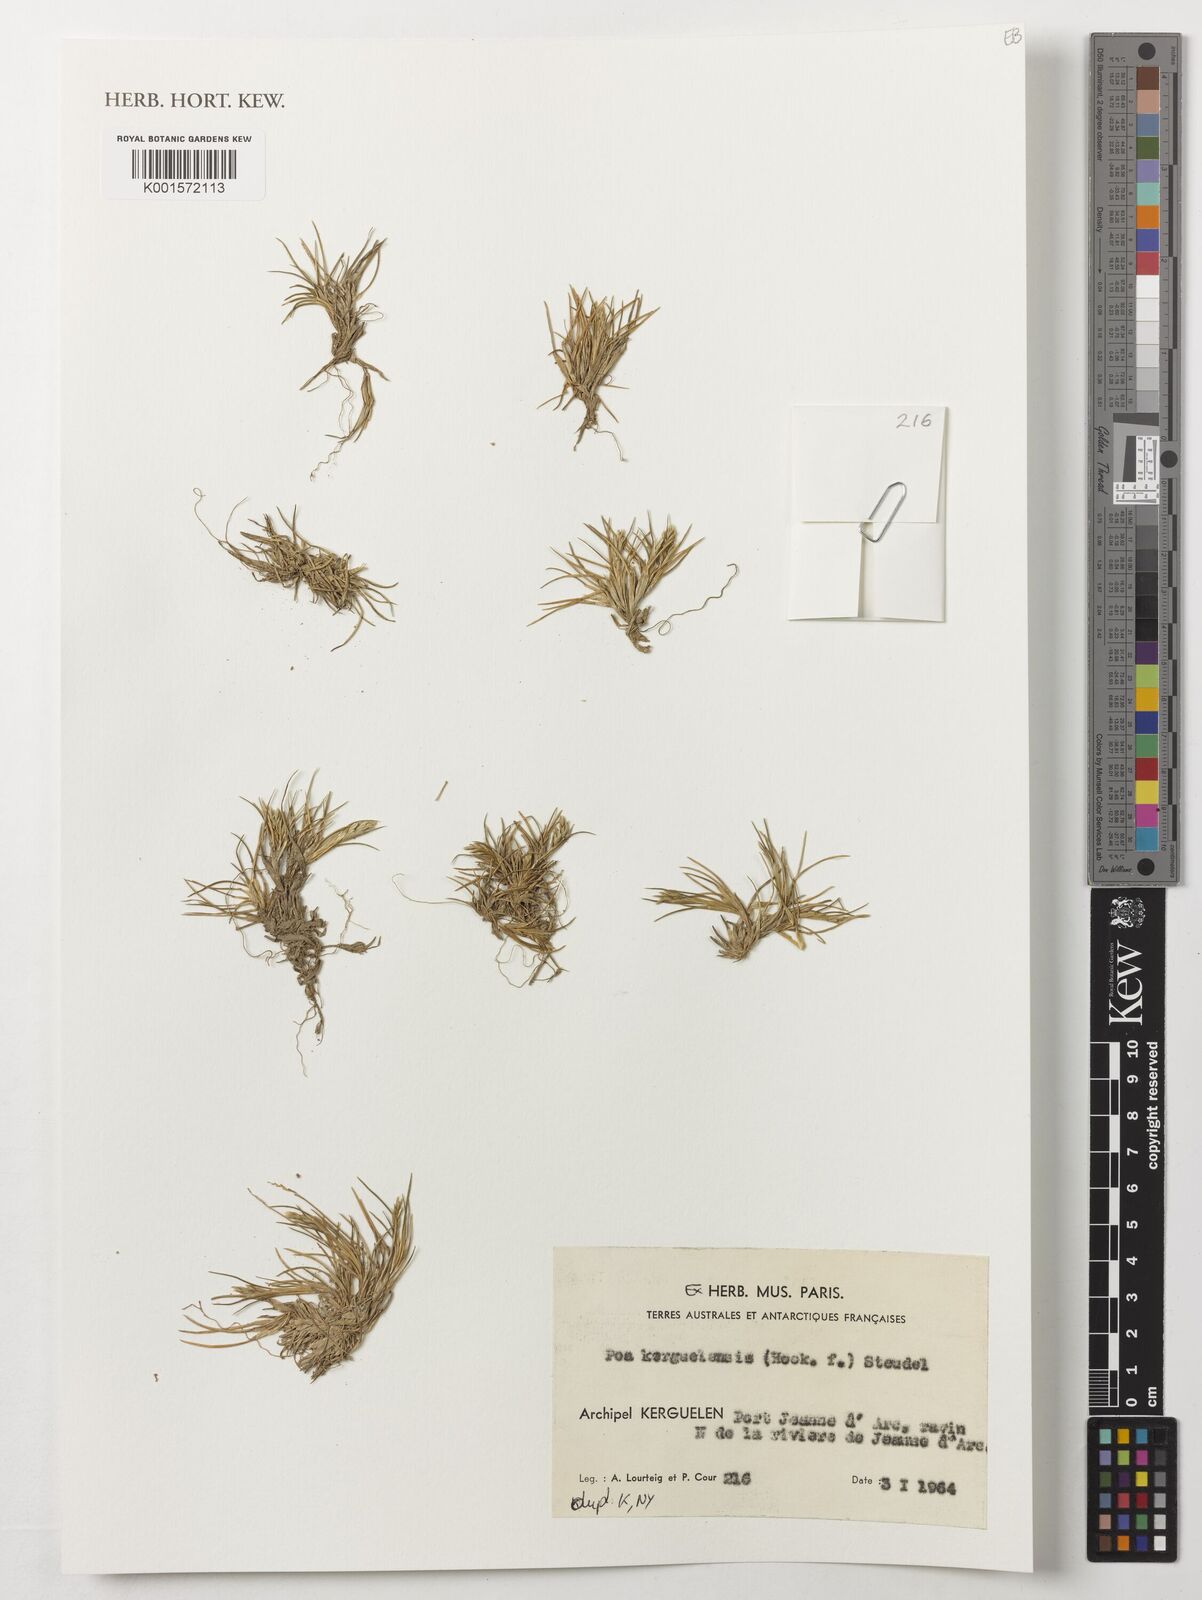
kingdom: Plantae
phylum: Tracheophyta
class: Liliopsida
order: Poales
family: Poaceae
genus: Poa
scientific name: Poa kerguelensis
